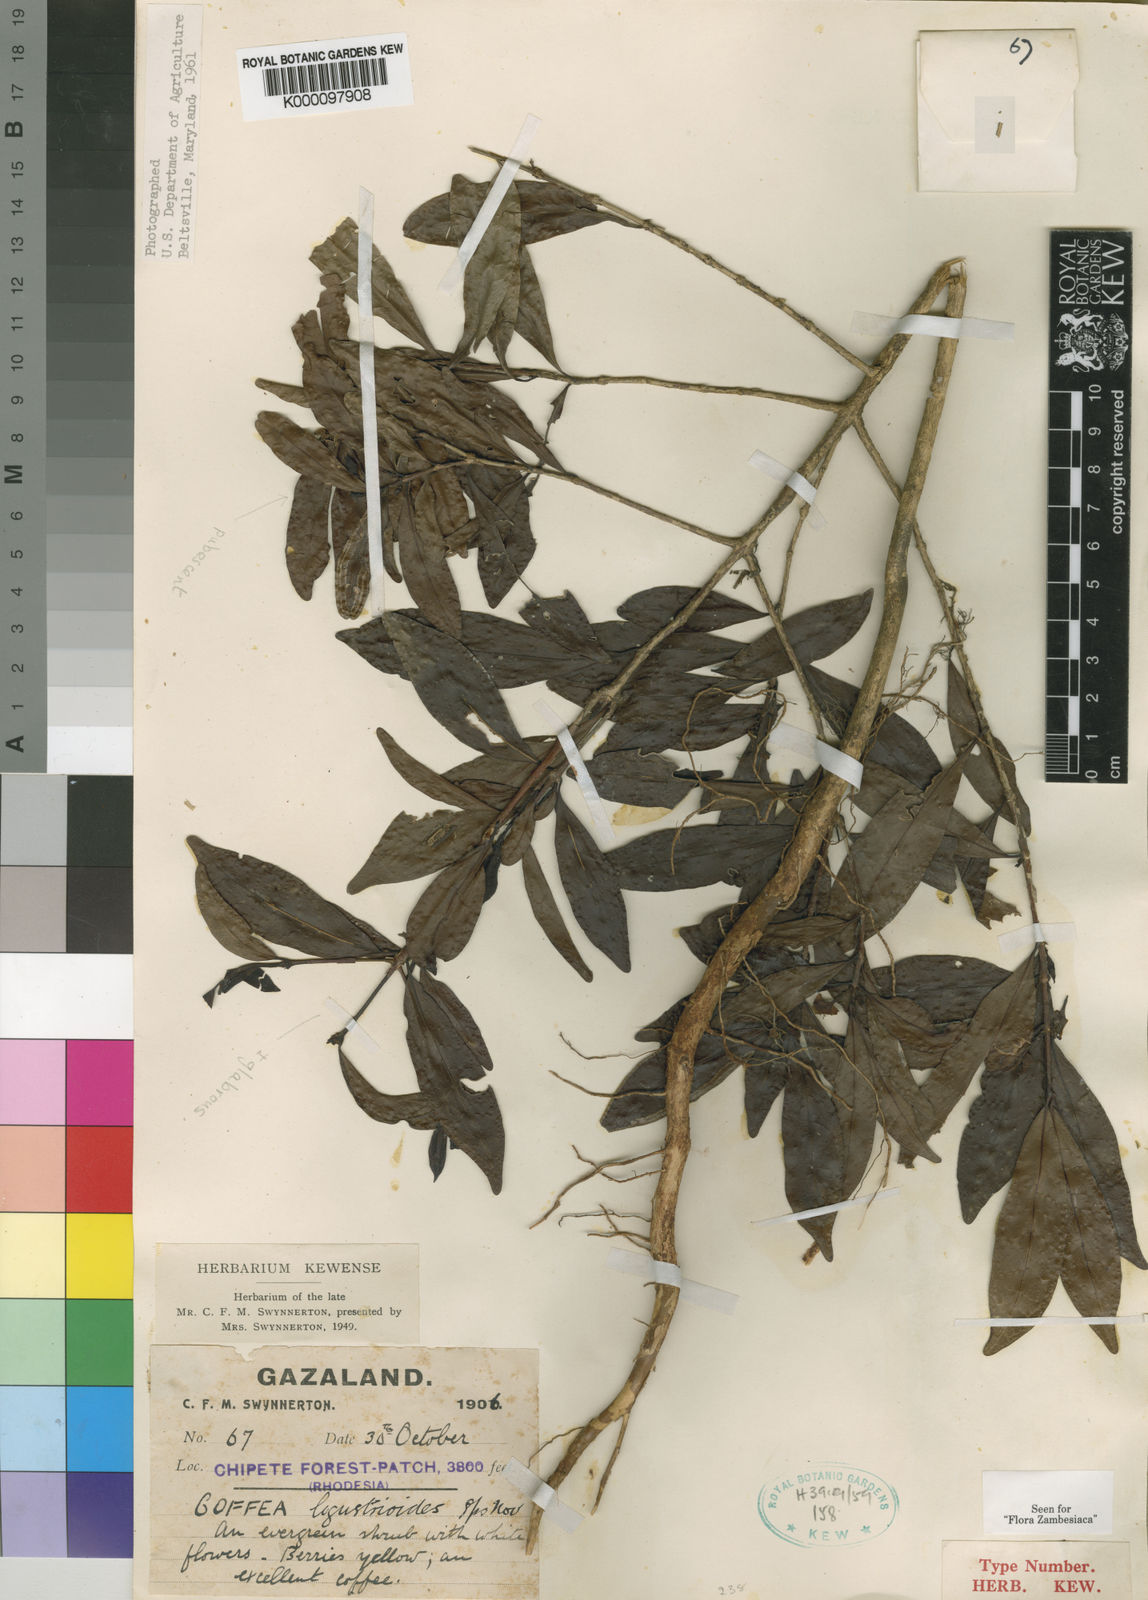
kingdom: Plantae
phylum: Tracheophyta
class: Magnoliopsida
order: Gentianales
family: Rubiaceae
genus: Coffea
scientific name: Coffea ligustroides
